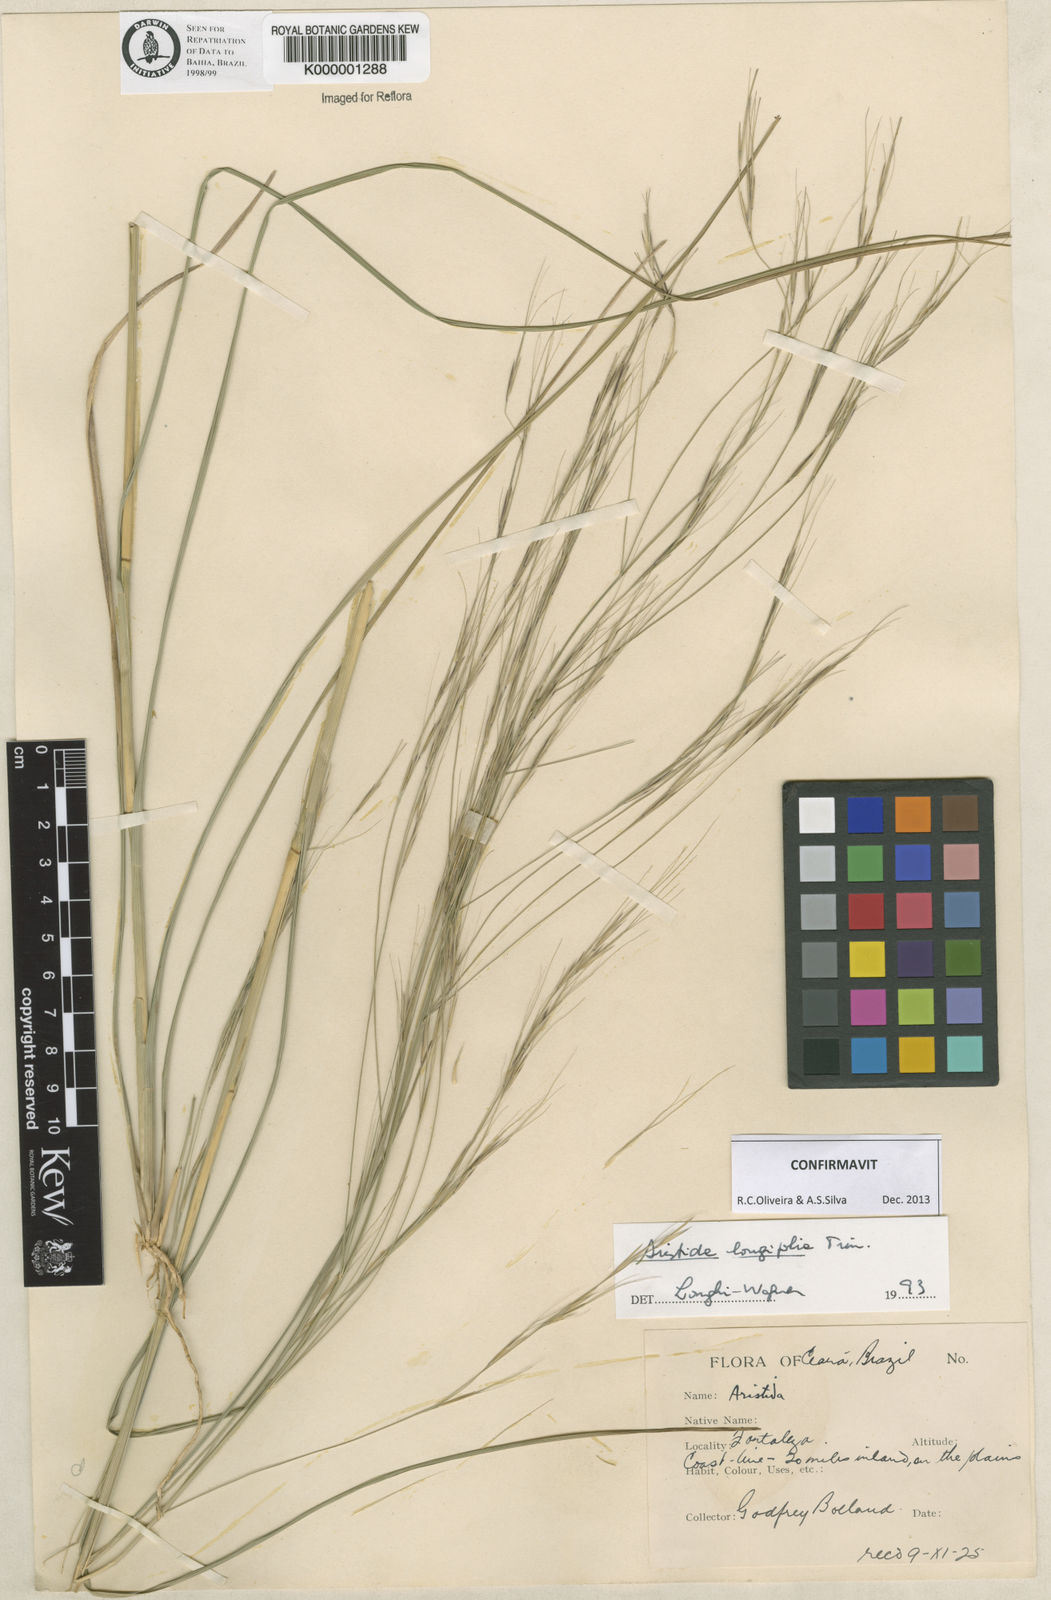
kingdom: Plantae
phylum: Tracheophyta
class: Liliopsida
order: Poales
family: Poaceae
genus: Aristida
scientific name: Aristida longifolia
